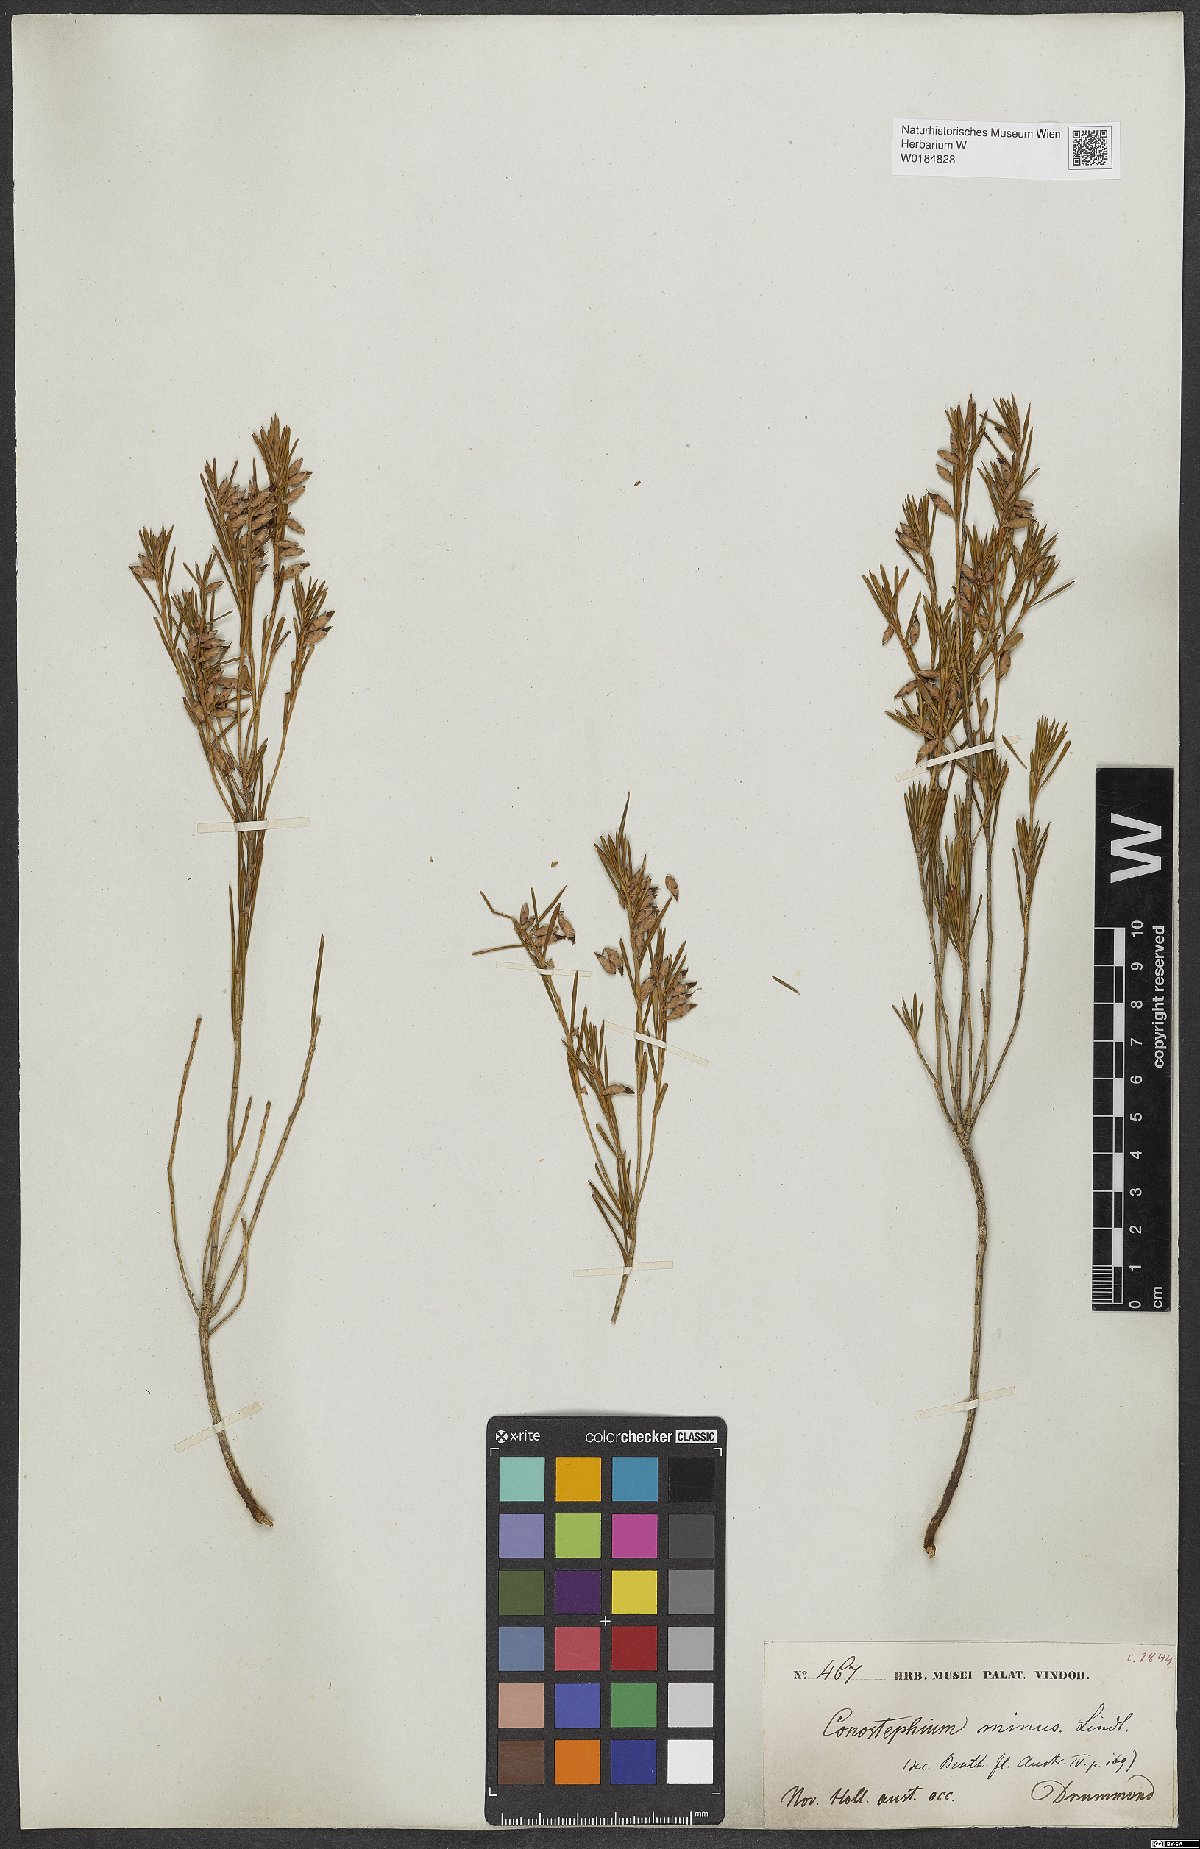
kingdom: Plantae
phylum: Tracheophyta
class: Magnoliopsida
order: Ericales
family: Ericaceae
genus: Conostephium
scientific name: Conostephium minus
